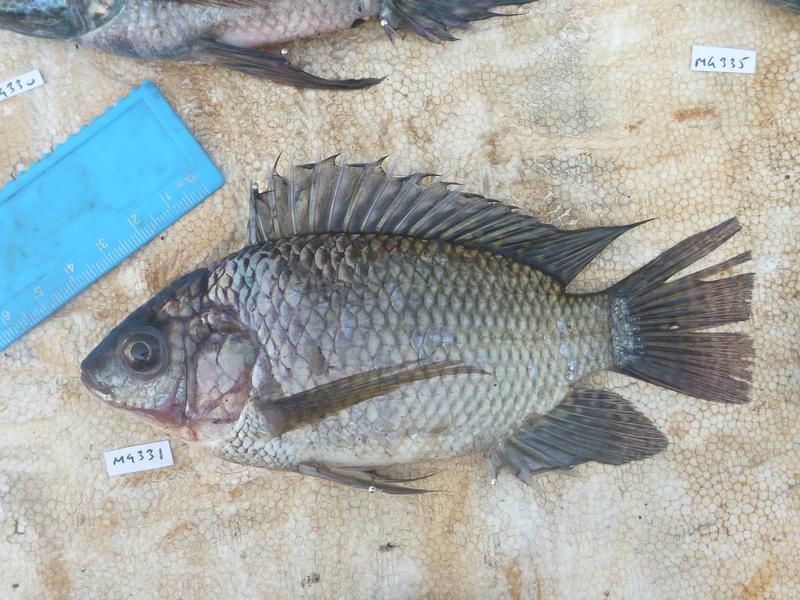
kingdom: Animalia
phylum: Chordata
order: Perciformes
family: Cichlidae
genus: Oreochromis
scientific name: Oreochromis niloticus
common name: Nile tilapia
